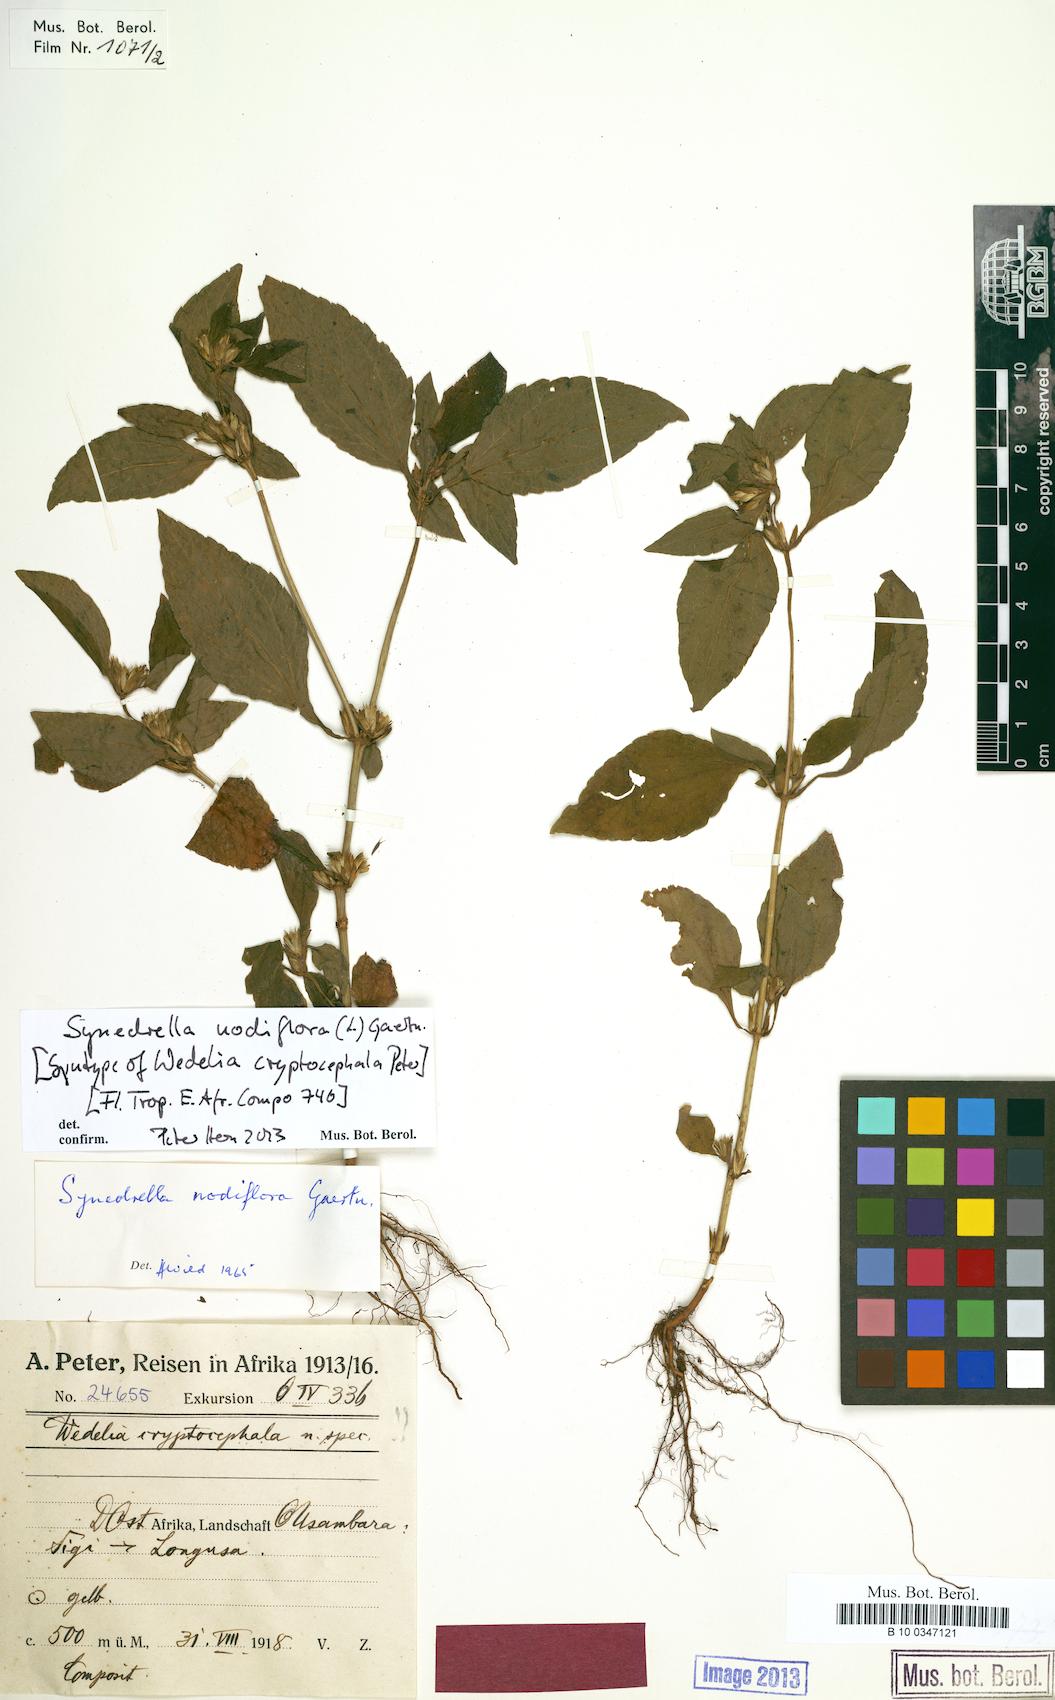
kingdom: Plantae
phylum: Tracheophyta
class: Magnoliopsida
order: Asterales
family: Asteraceae
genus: Synedrella
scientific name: Synedrella nodiflora
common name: Nodeweed
